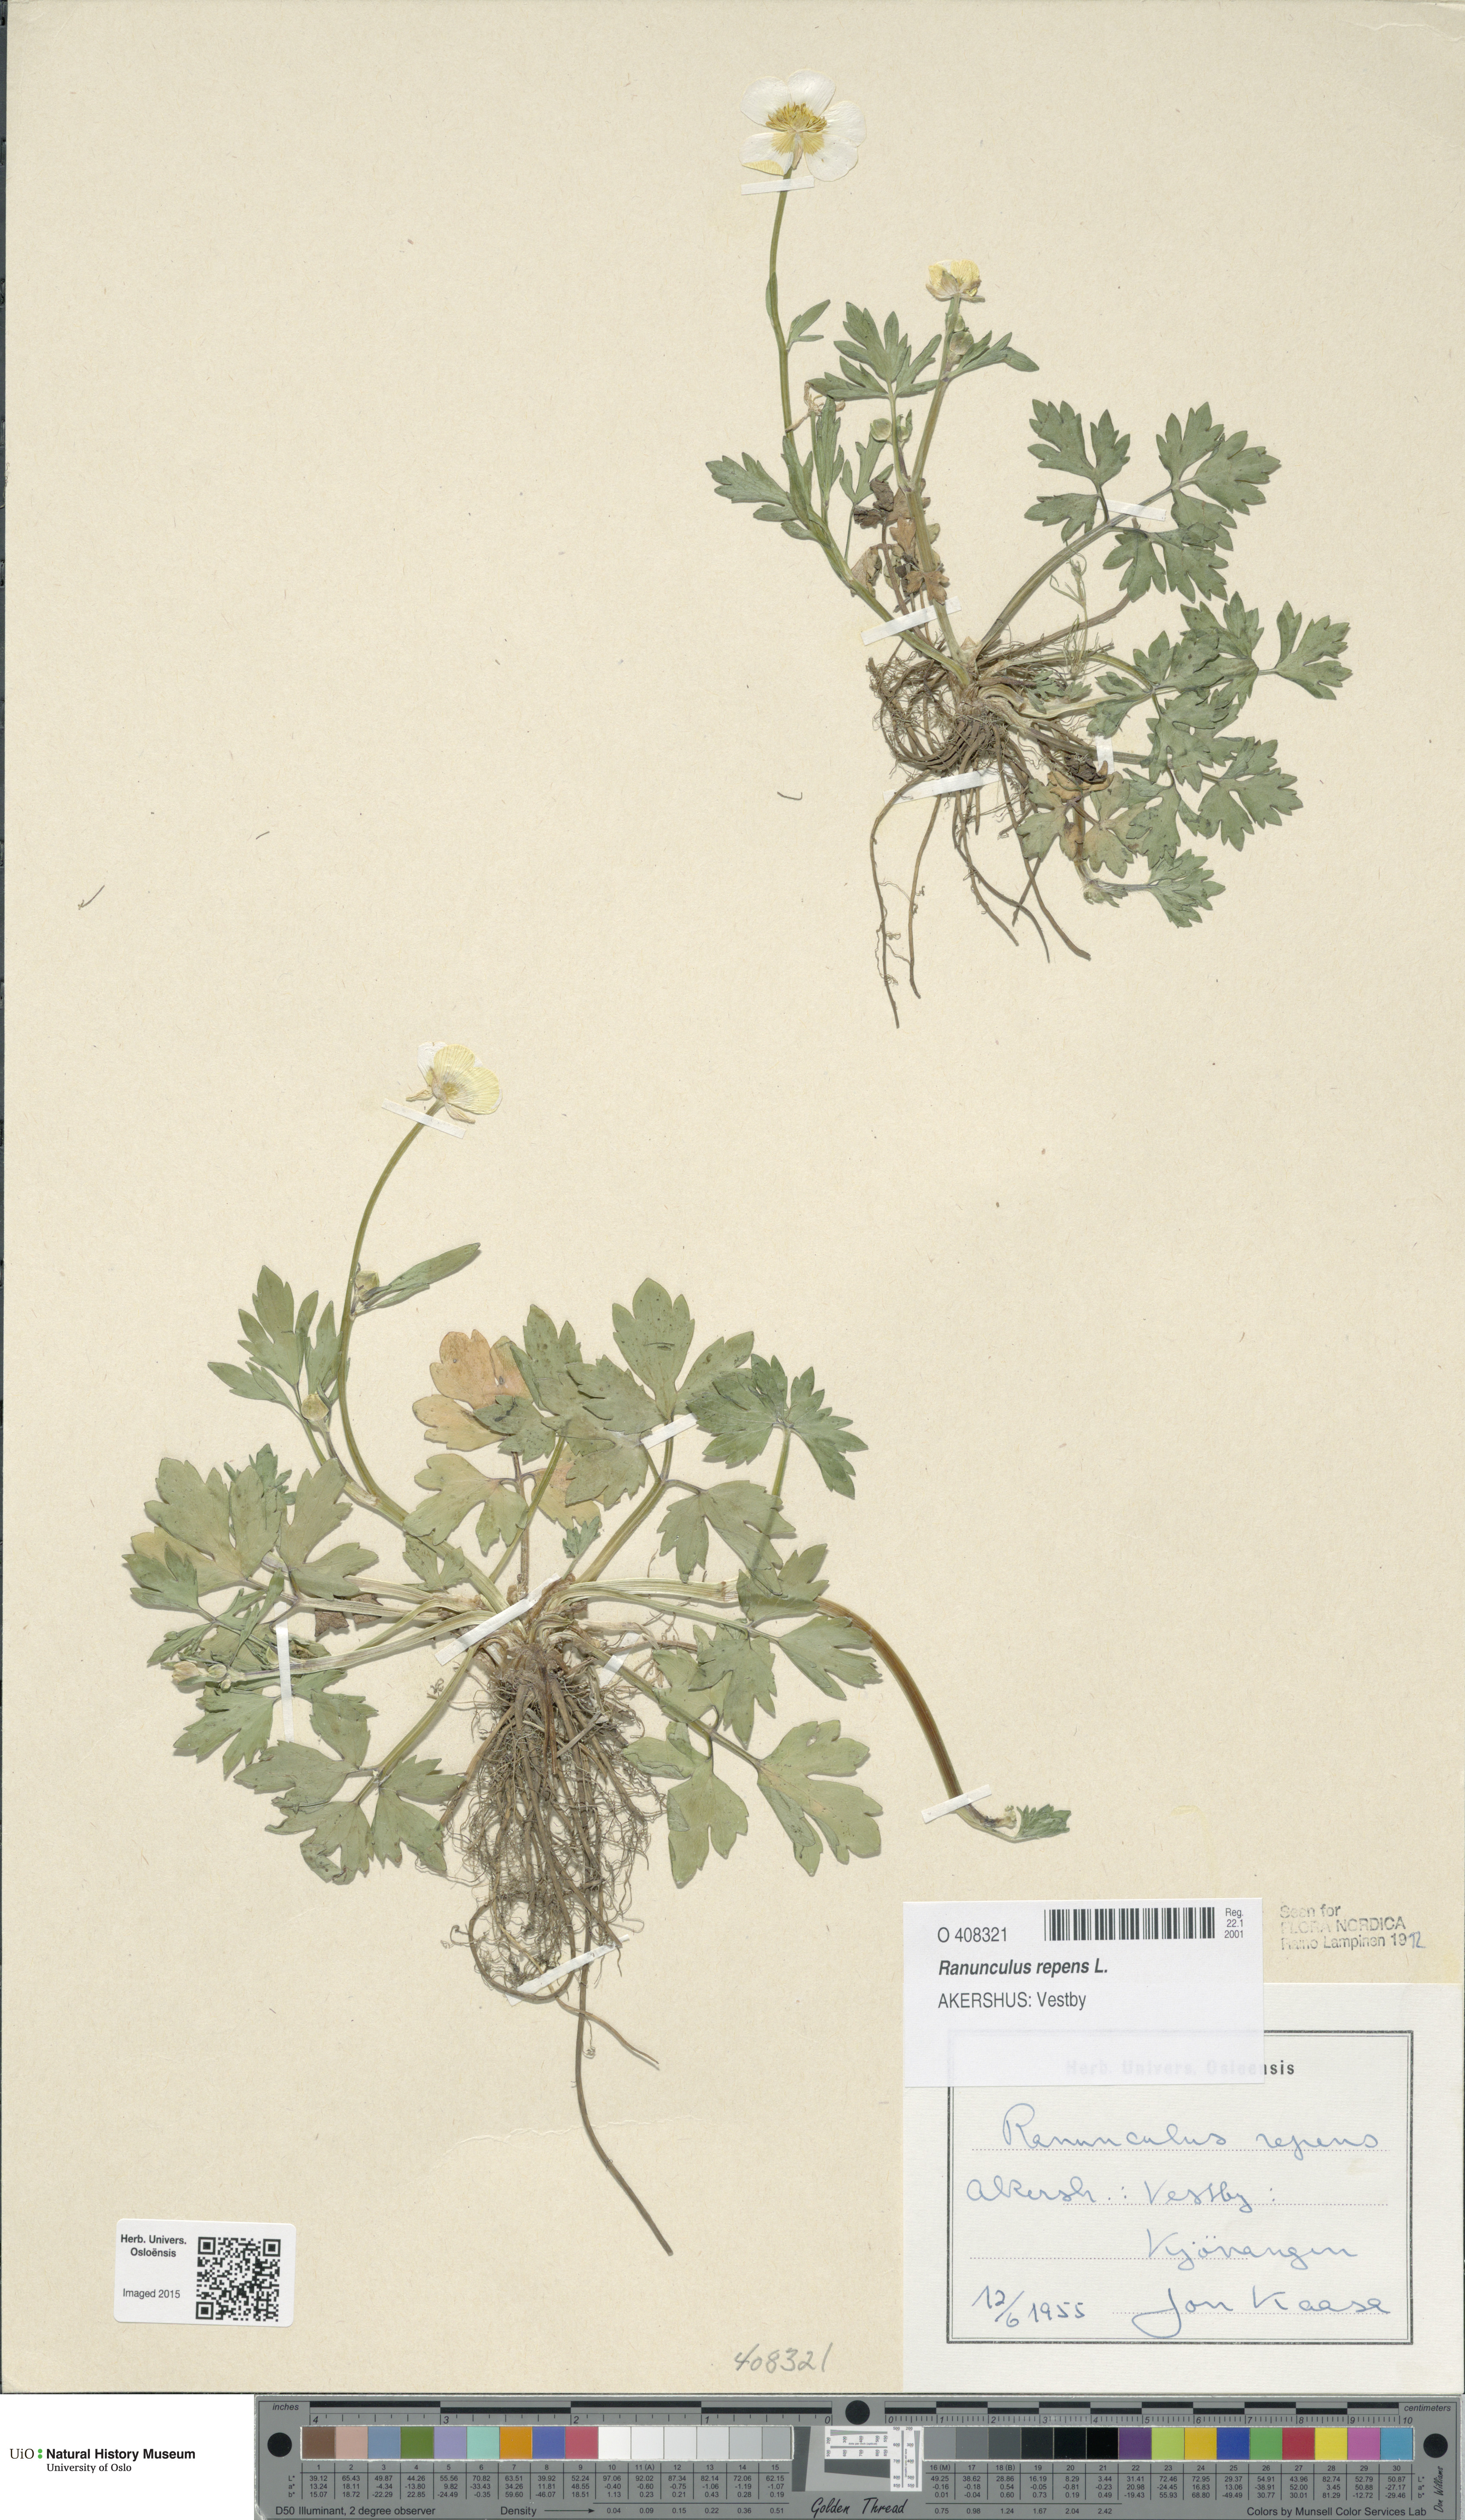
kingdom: Plantae
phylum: Tracheophyta
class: Magnoliopsida
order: Ranunculales
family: Ranunculaceae
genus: Ranunculus
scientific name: Ranunculus repens
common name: Creeping buttercup
